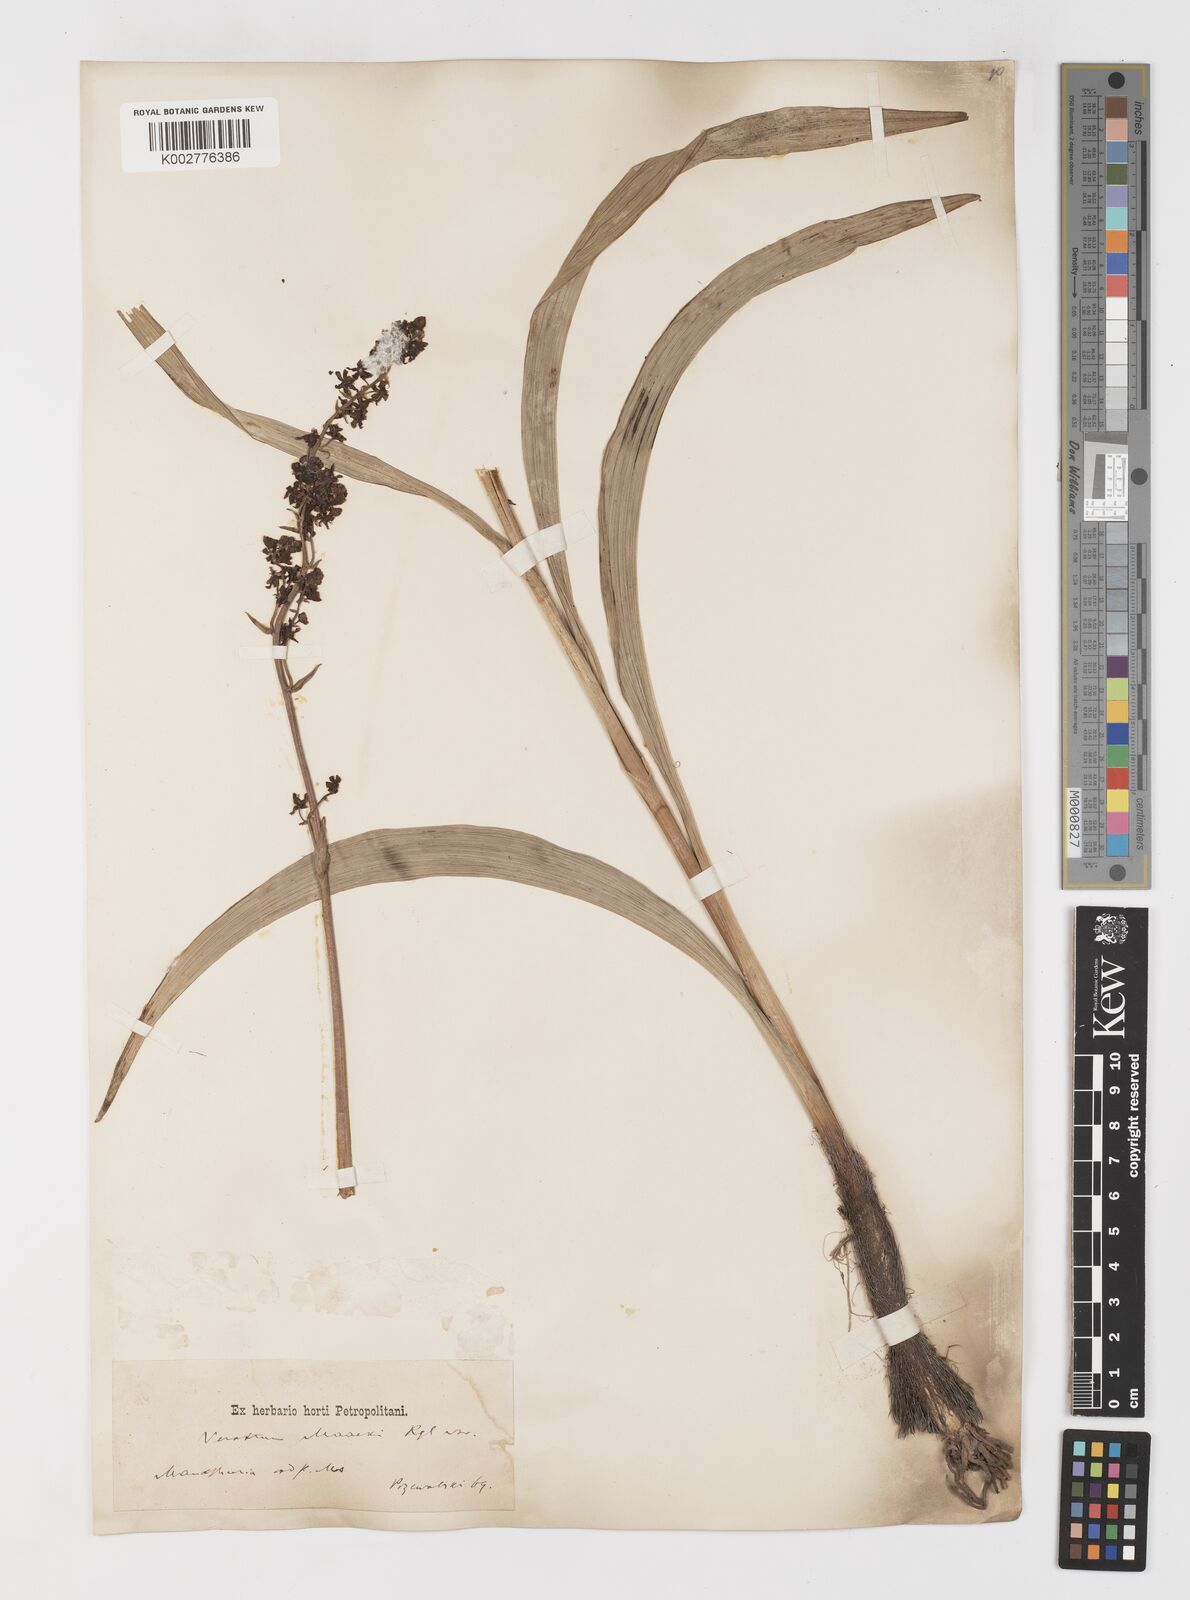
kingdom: Plantae
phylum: Tracheophyta
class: Liliopsida
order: Liliales
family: Melanthiaceae
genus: Veratrum
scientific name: Veratrum maackii
